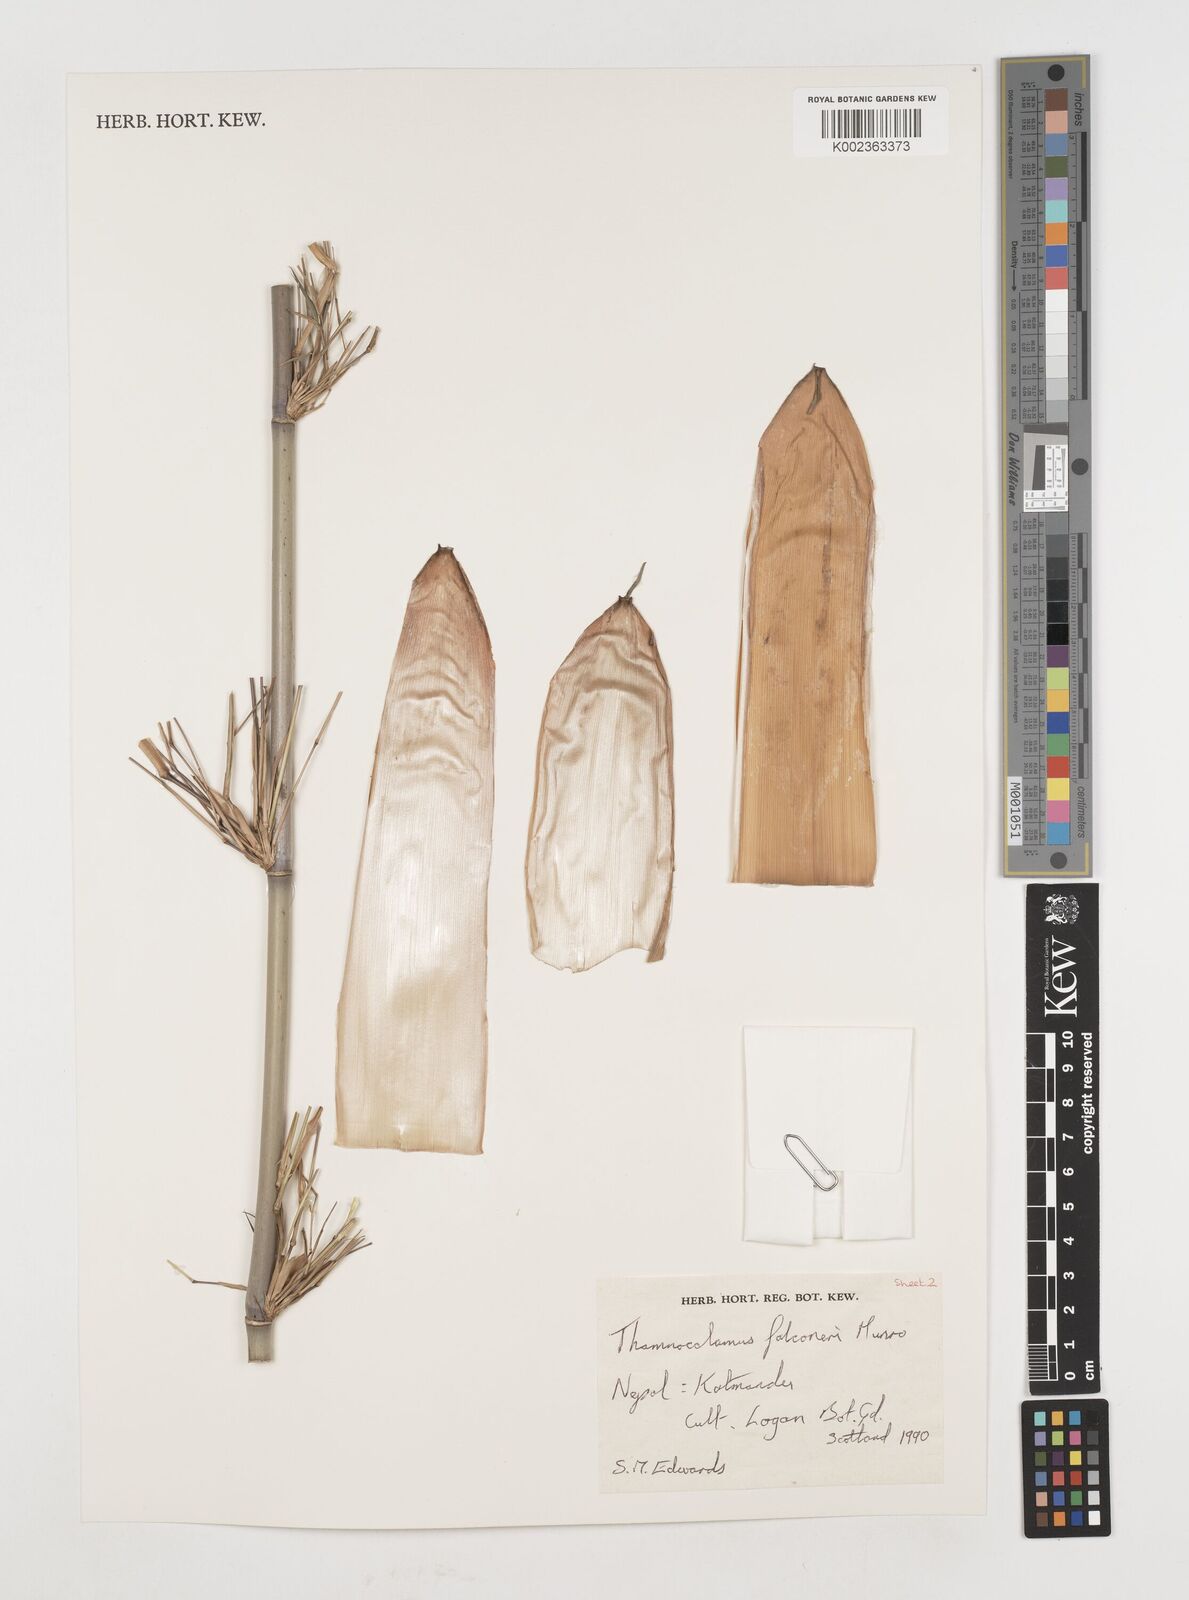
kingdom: Plantae
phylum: Tracheophyta
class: Liliopsida
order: Poales
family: Poaceae
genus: Himalayacalamus
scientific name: Himalayacalamus
